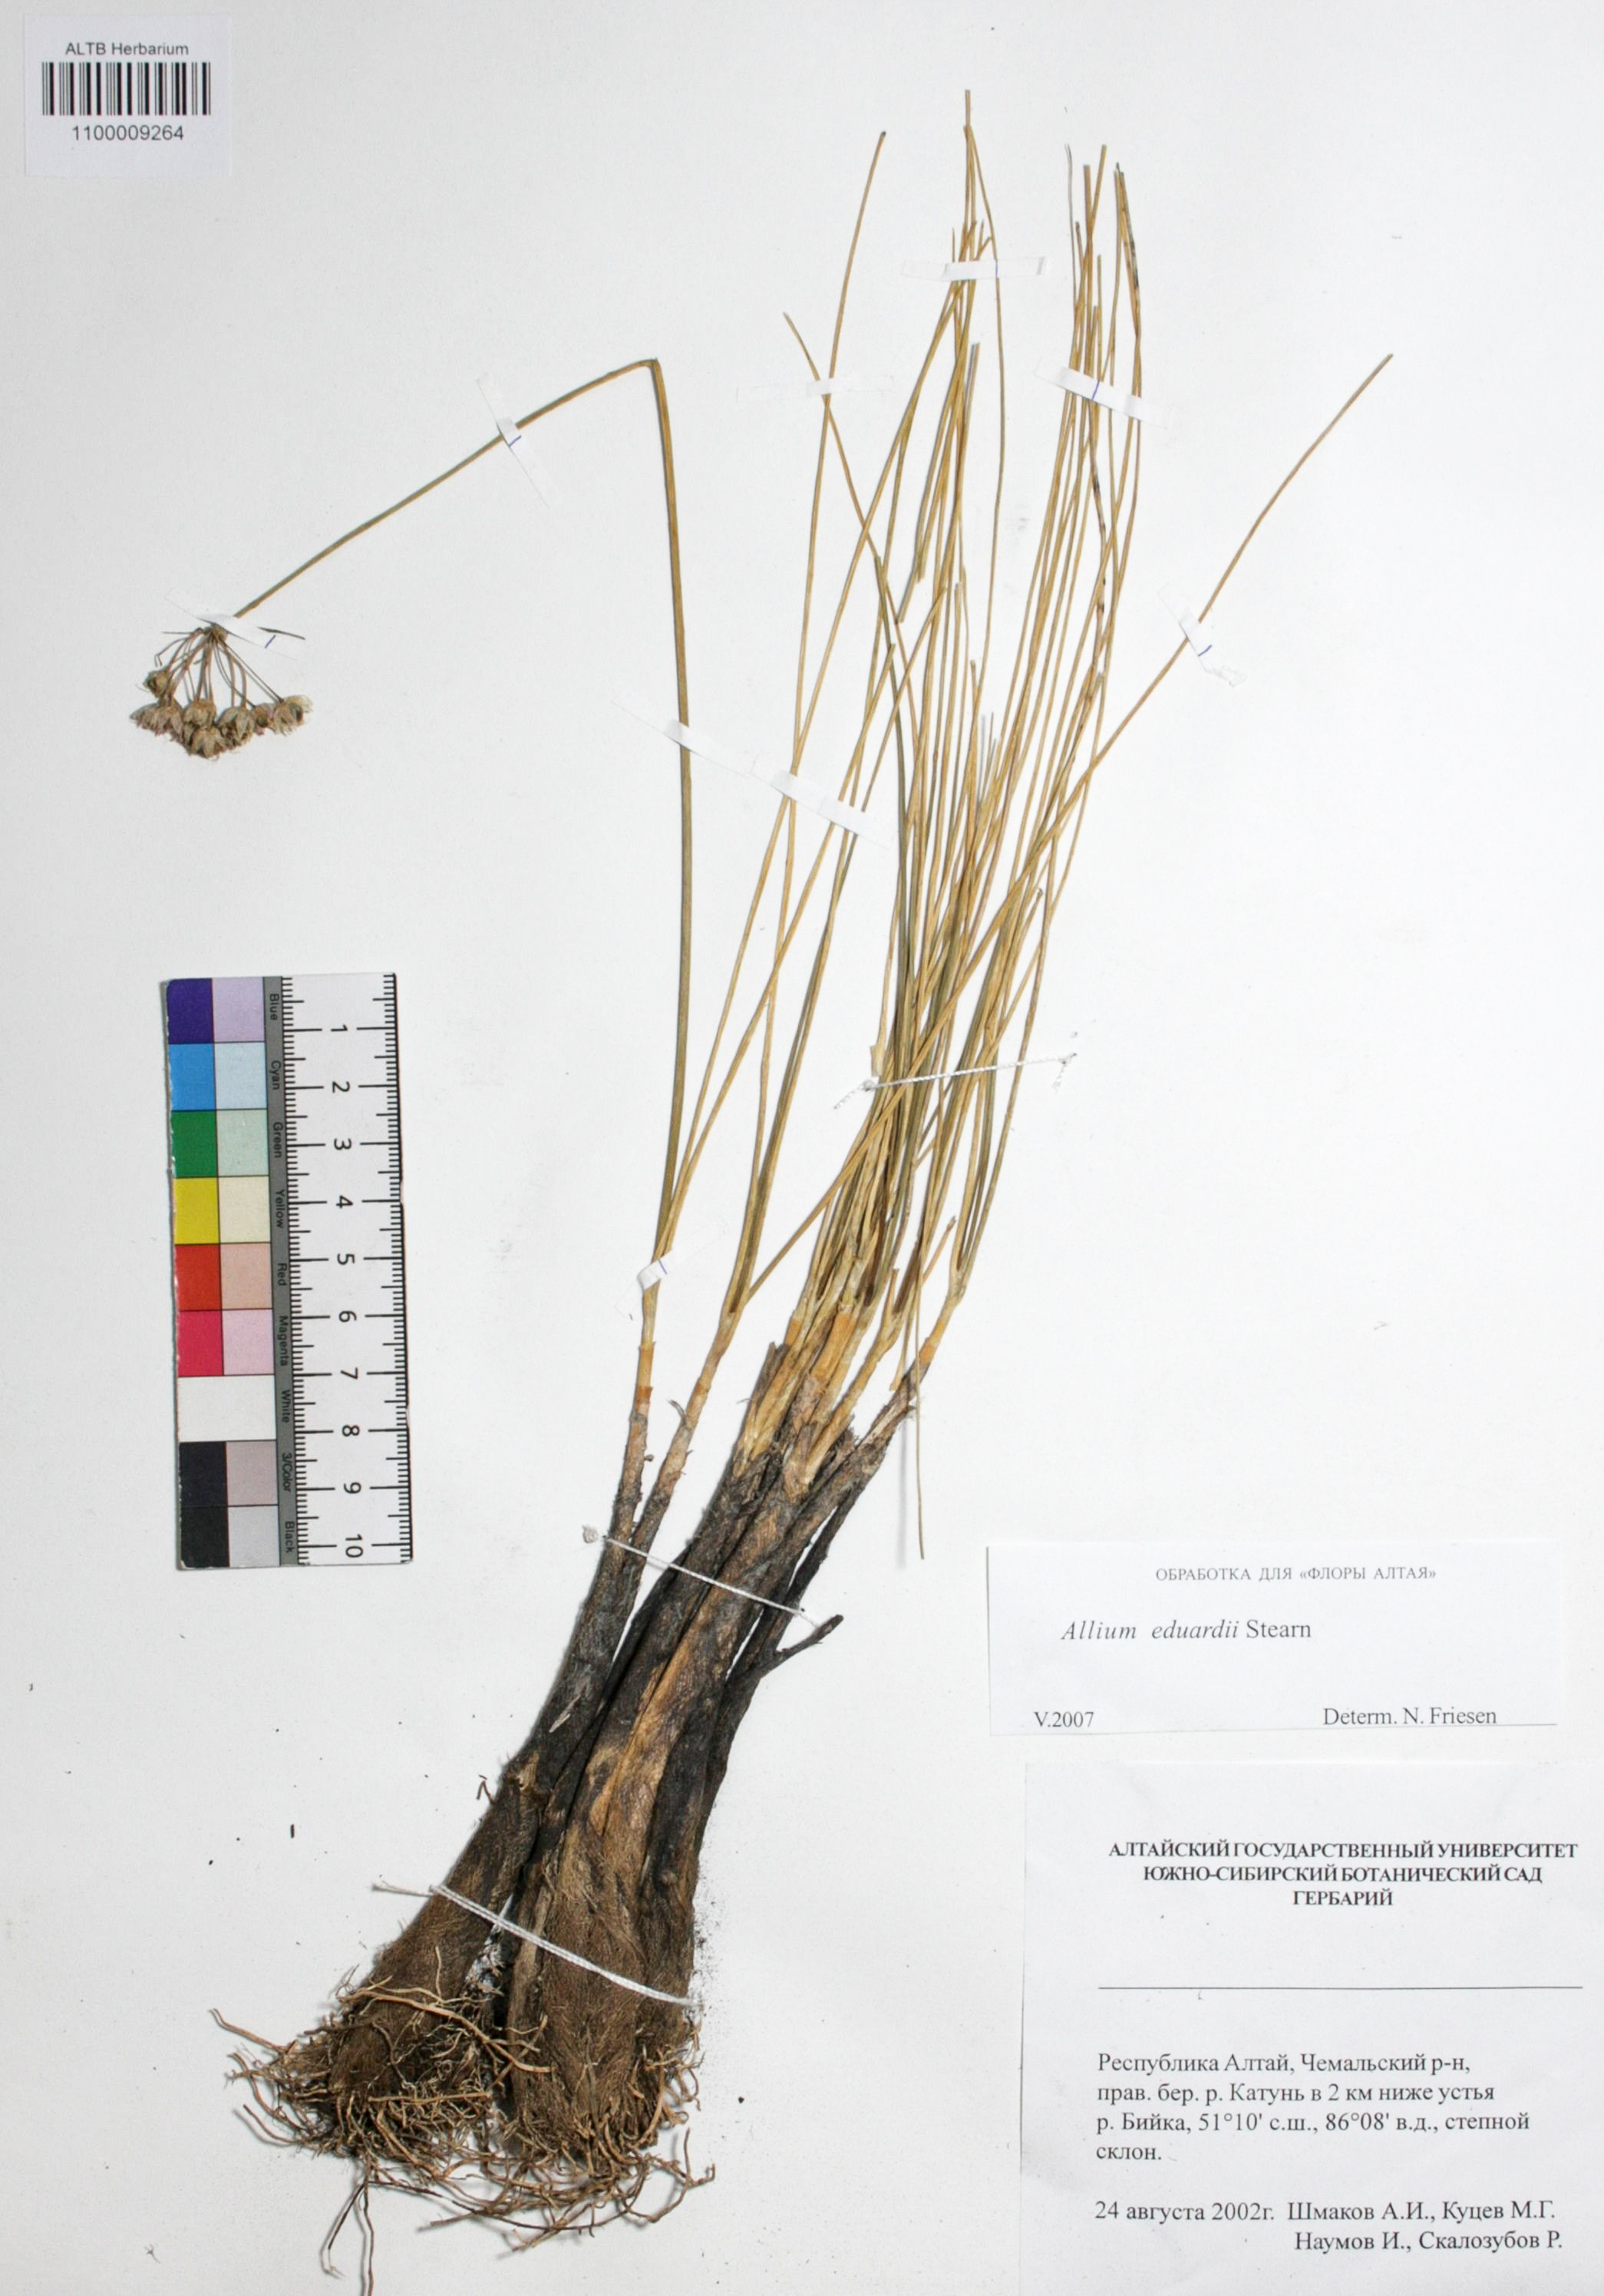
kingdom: Plantae
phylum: Tracheophyta
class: Liliopsida
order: Asparagales
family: Amaryllidaceae
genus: Allium
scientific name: Allium eduardi
